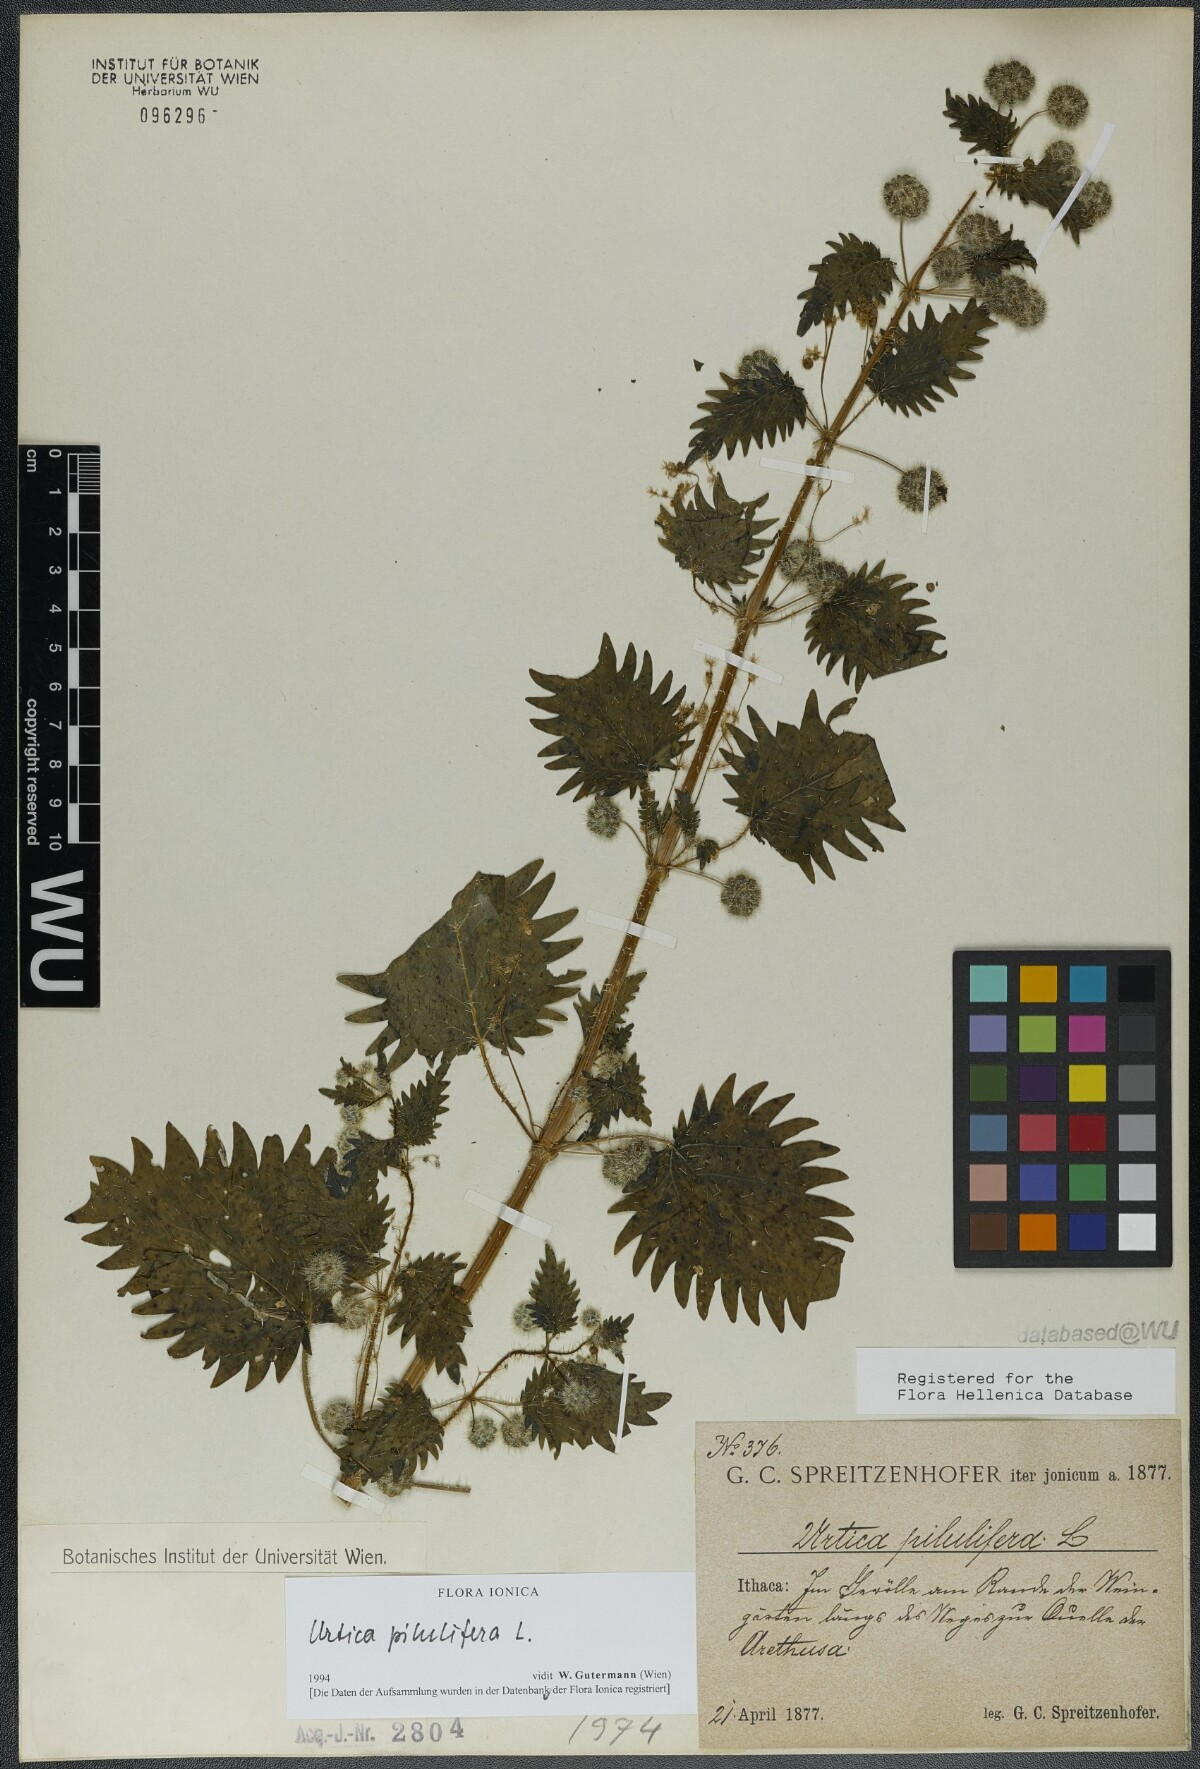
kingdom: Plantae
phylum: Tracheophyta
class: Magnoliopsida
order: Rosales
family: Urticaceae
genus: Urtica
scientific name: Urtica pilulifera
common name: Roman nettle
